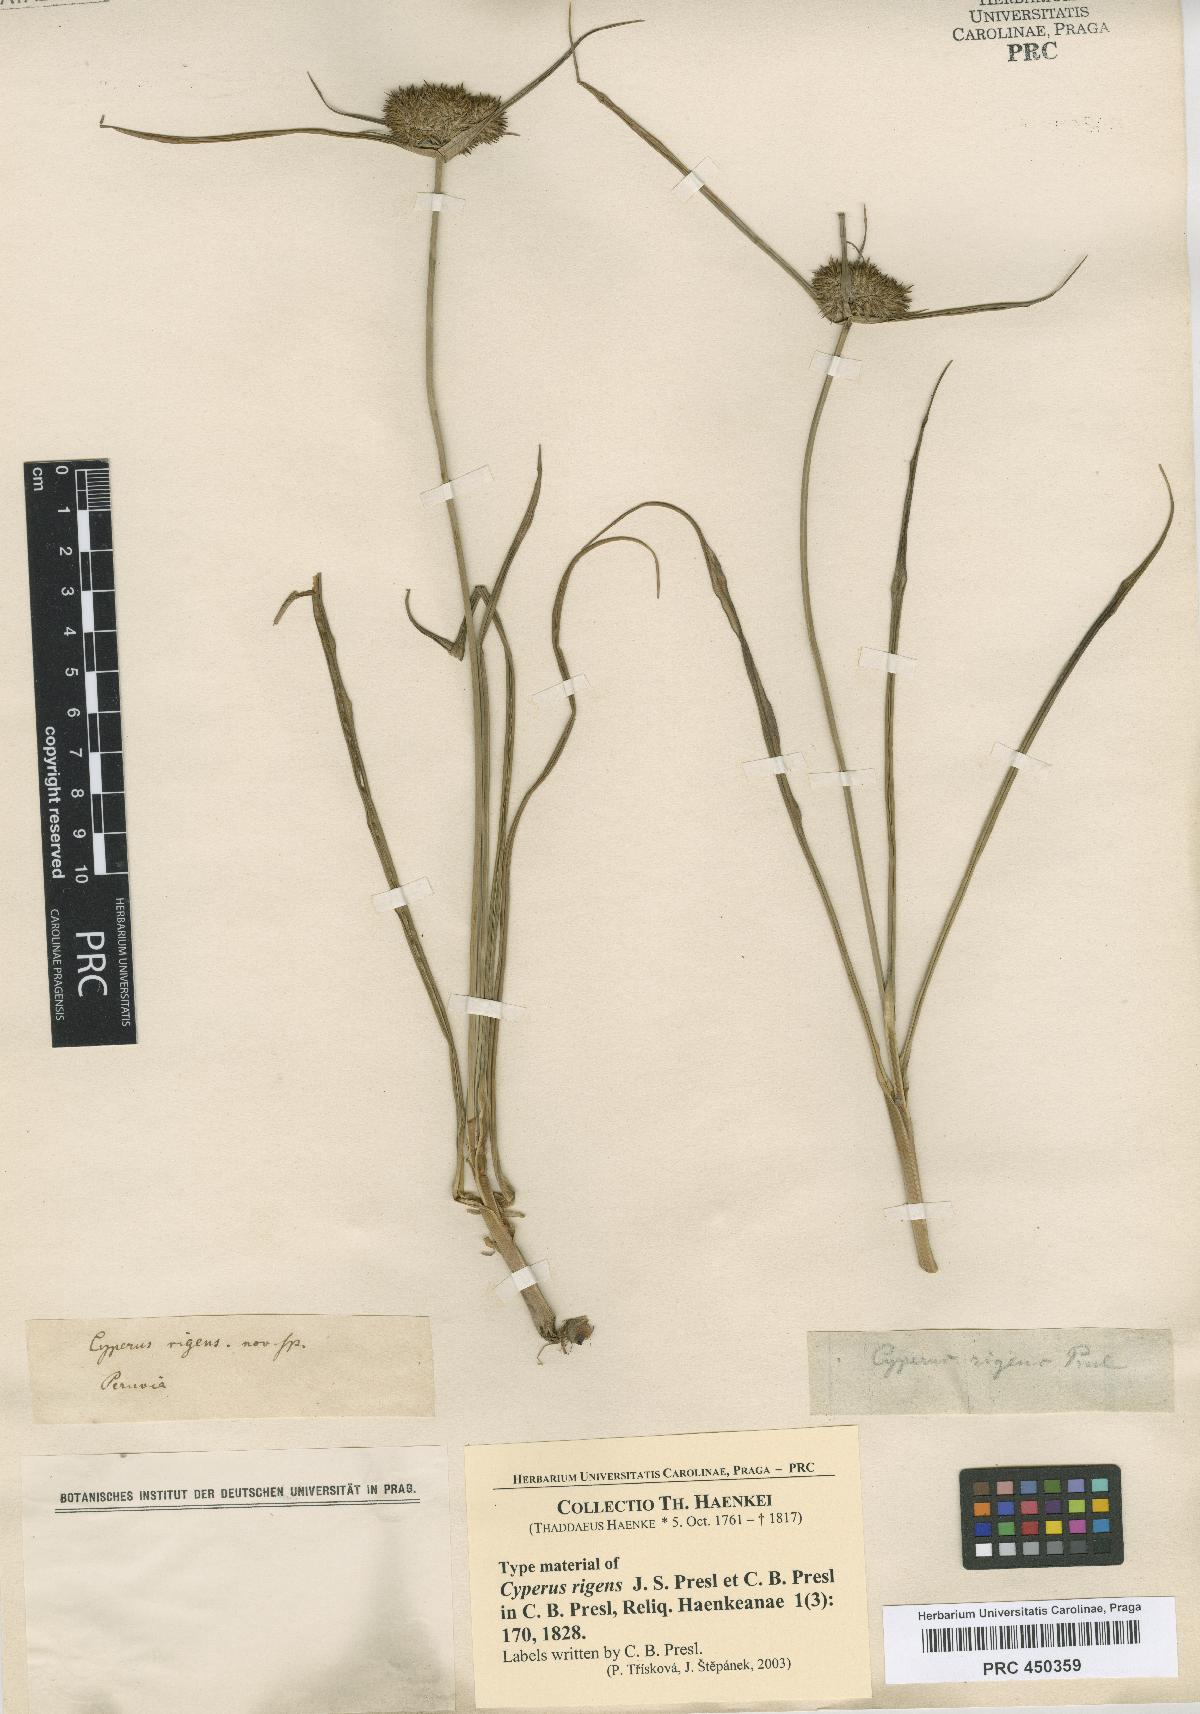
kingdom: Plantae
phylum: Tracheophyta
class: Liliopsida
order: Poales
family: Cyperaceae
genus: Cyperus
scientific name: Cyperus rigens
